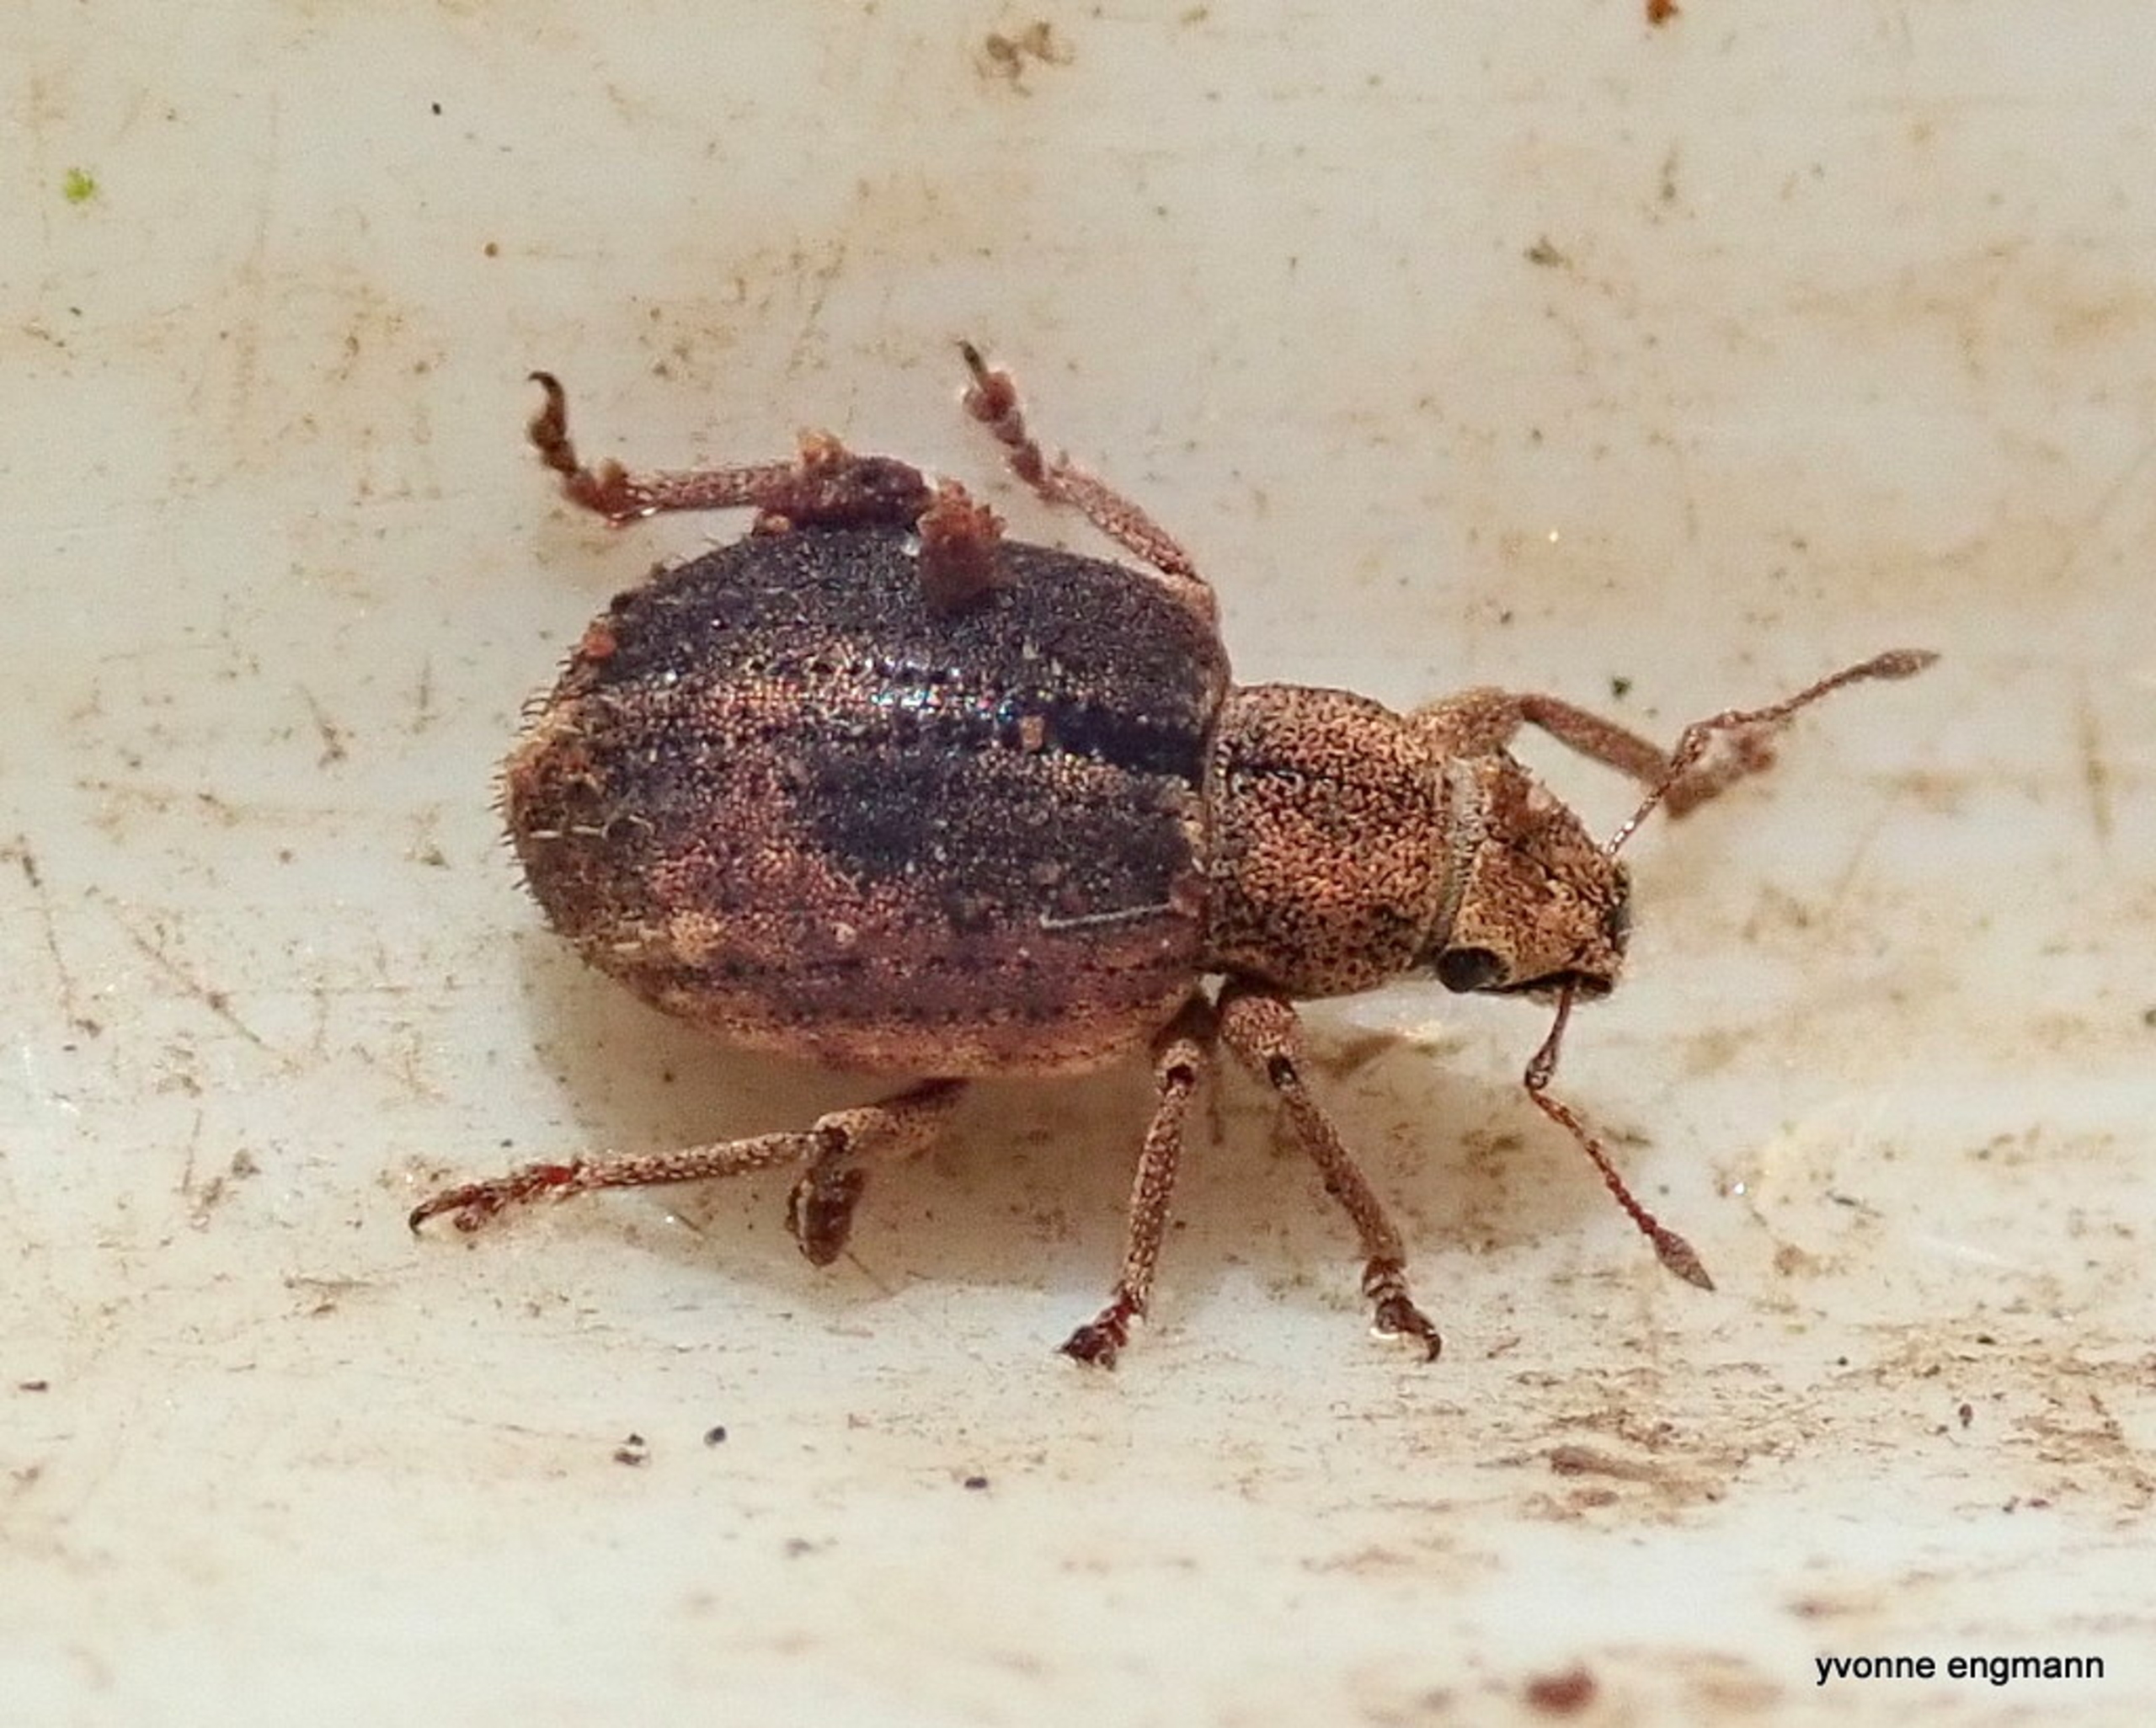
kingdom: Animalia
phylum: Arthropoda
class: Insecta
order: Coleoptera
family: Curculionidae
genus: Strophosoma
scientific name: Strophosoma melanogrammum
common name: Stribet gråsnude
